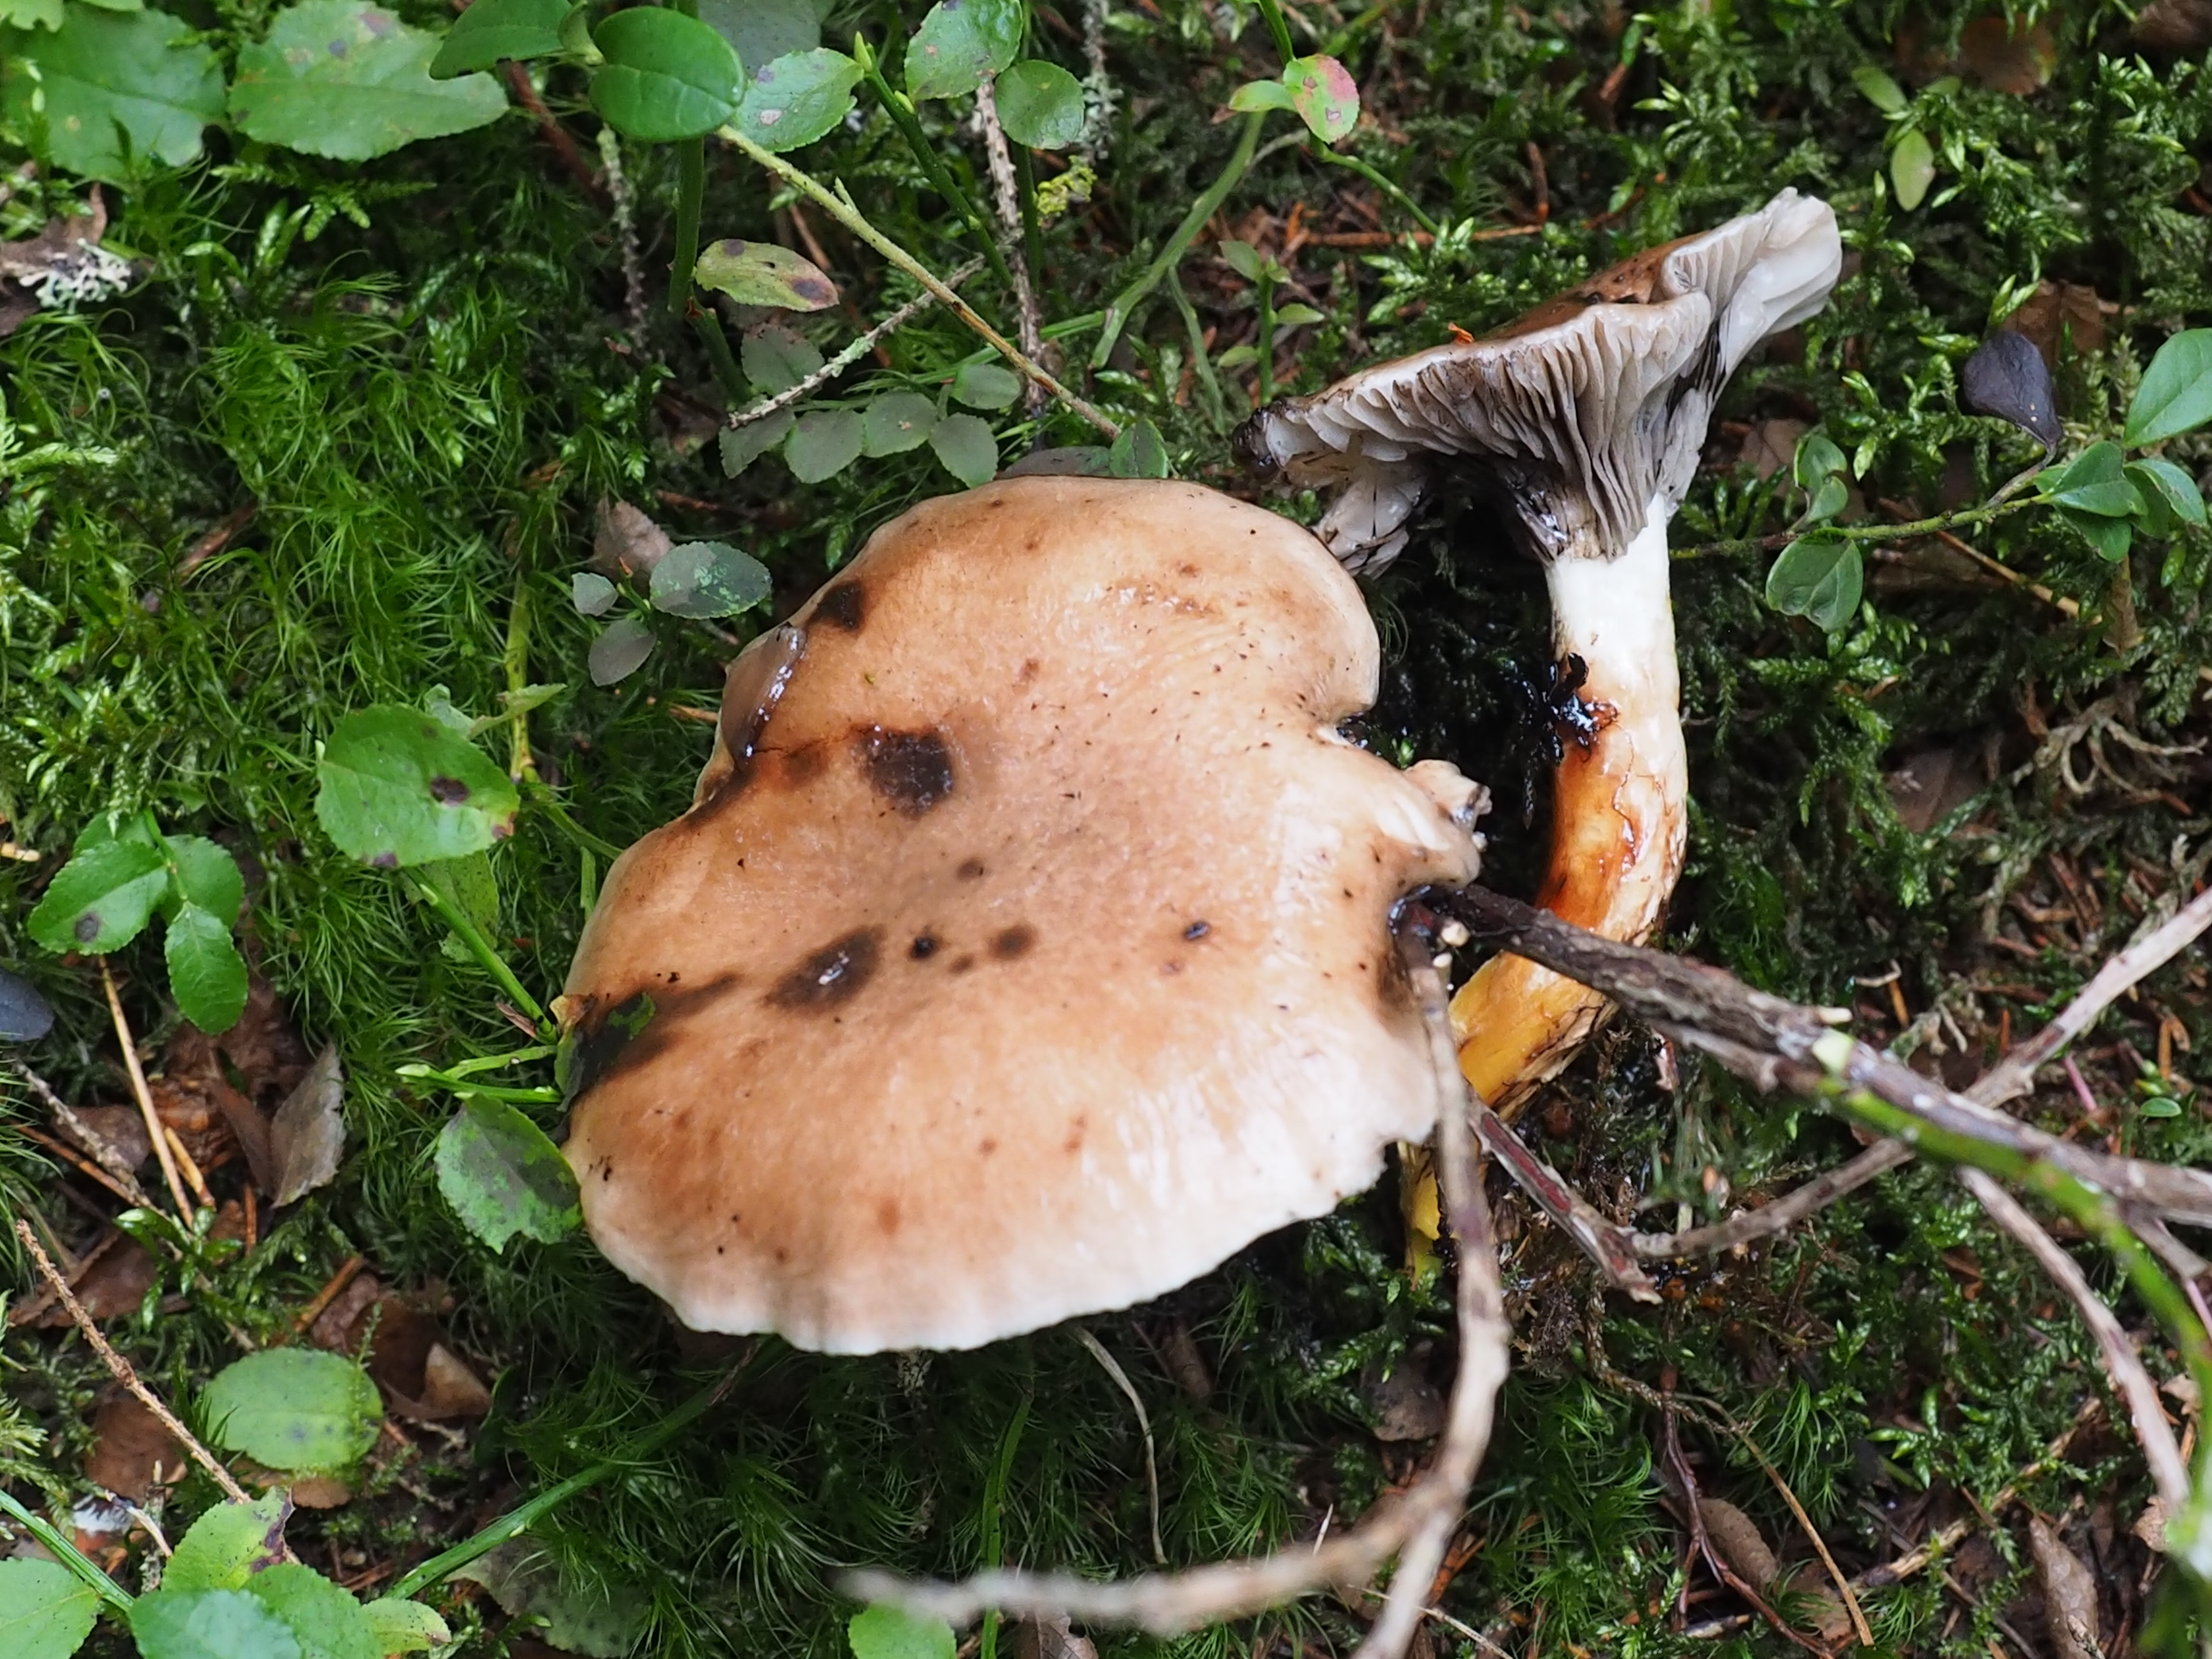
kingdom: Fungi
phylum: Basidiomycota
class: Agaricomycetes
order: Boletales
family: Gomphidiaceae
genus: Gomphidius
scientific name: Gomphidius glutinosus
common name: Slimy spike
